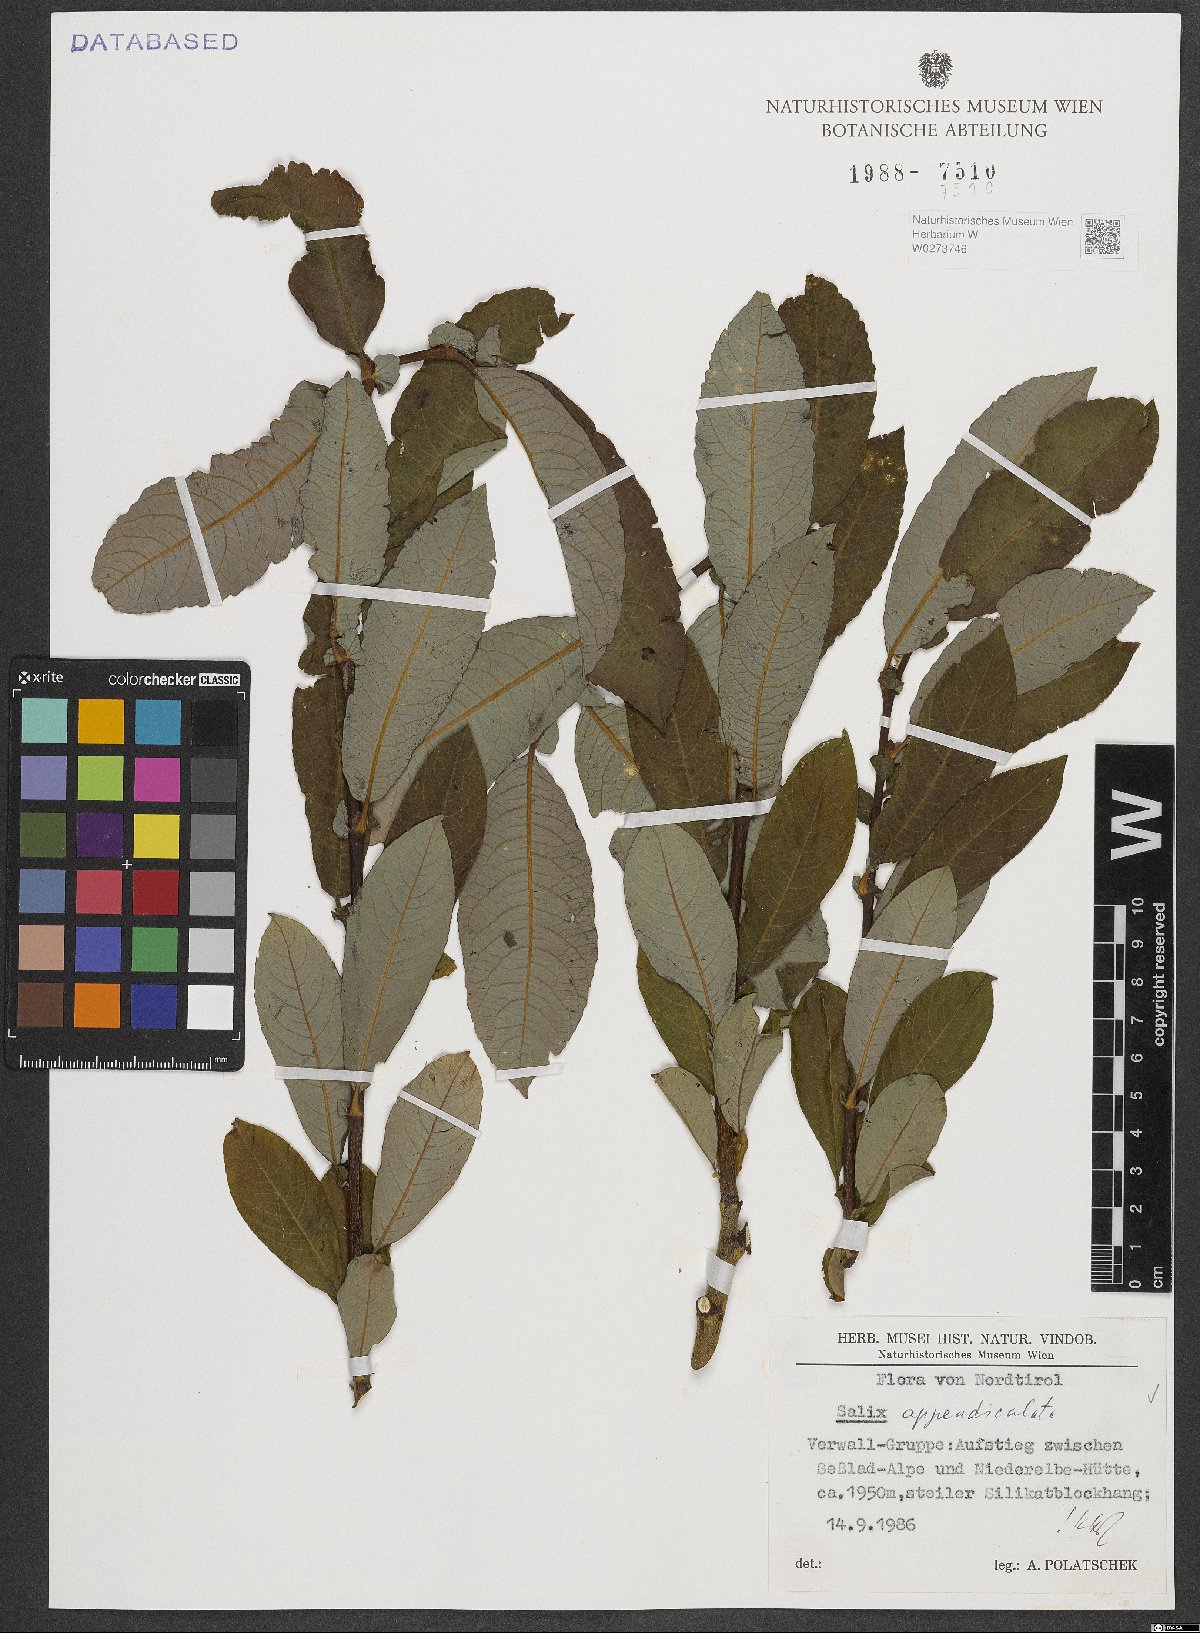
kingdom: Plantae
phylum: Tracheophyta
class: Magnoliopsida
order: Malpighiales
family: Salicaceae
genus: Salix
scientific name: Salix appendiculata
